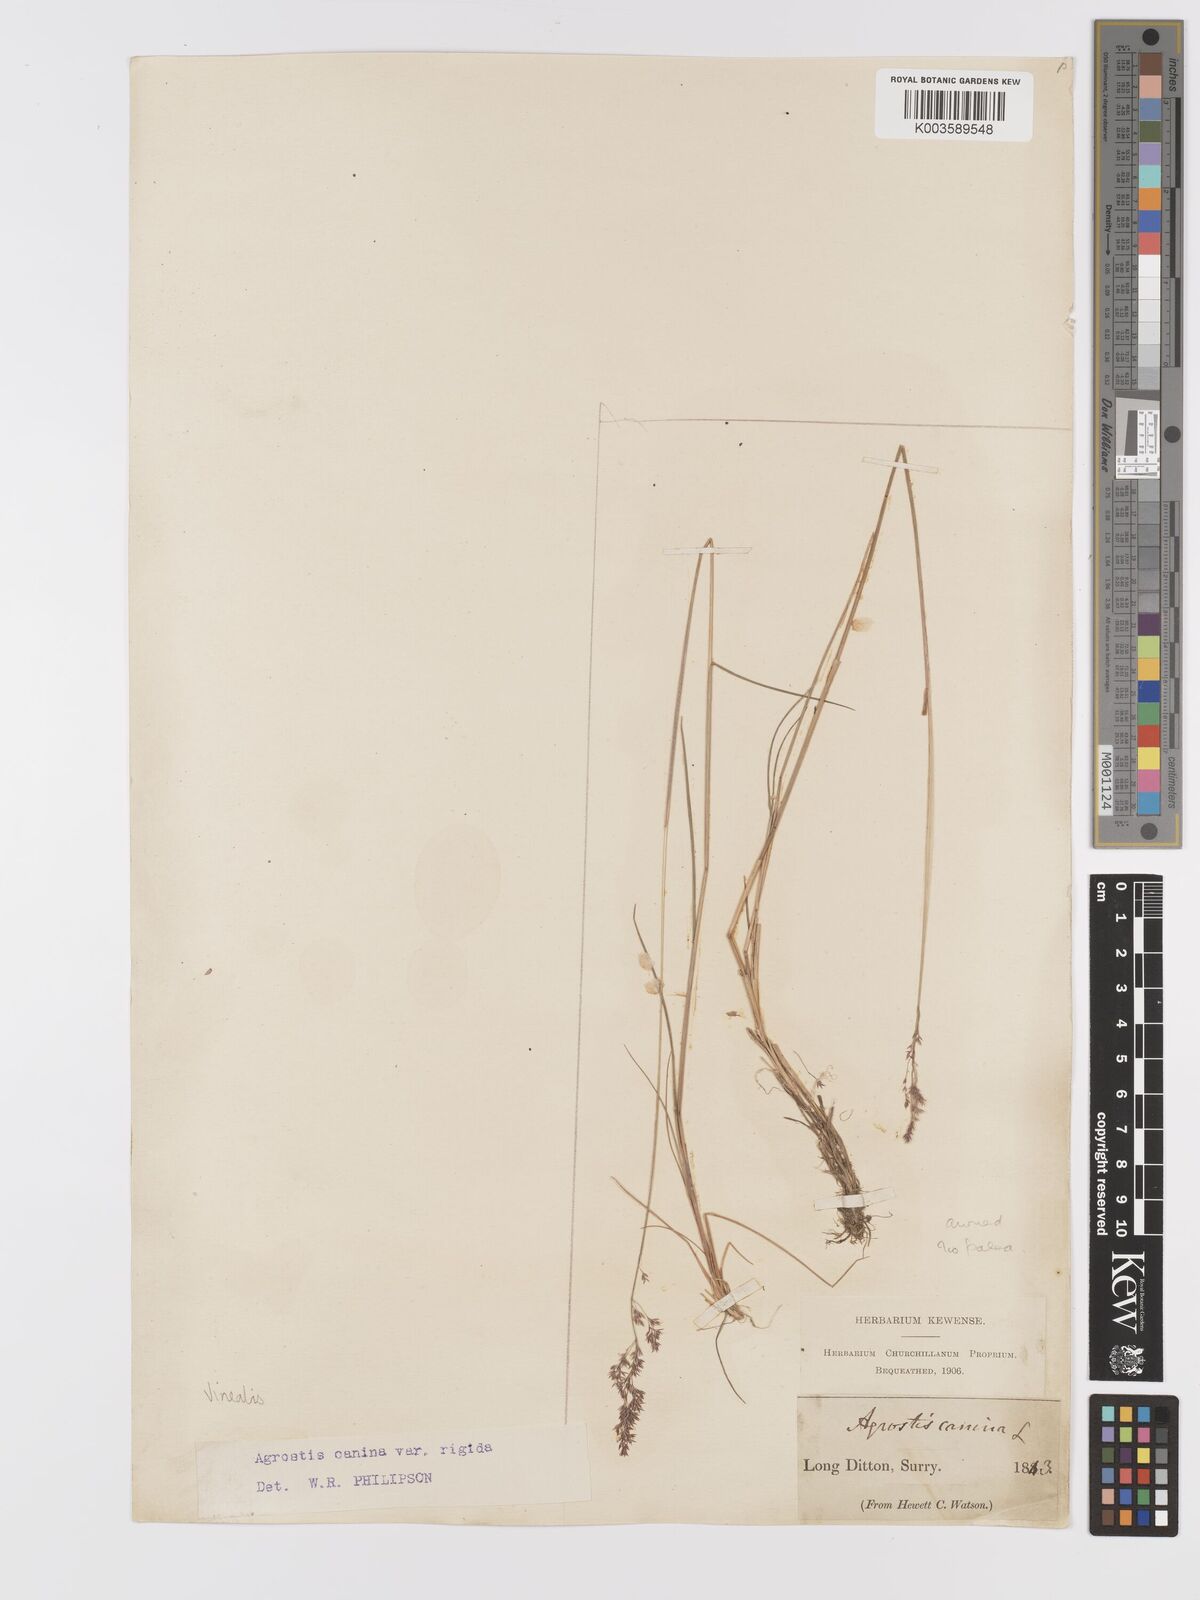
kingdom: Plantae
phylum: Tracheophyta
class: Liliopsida
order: Poales
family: Poaceae
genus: Agrostis
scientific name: Agrostis
